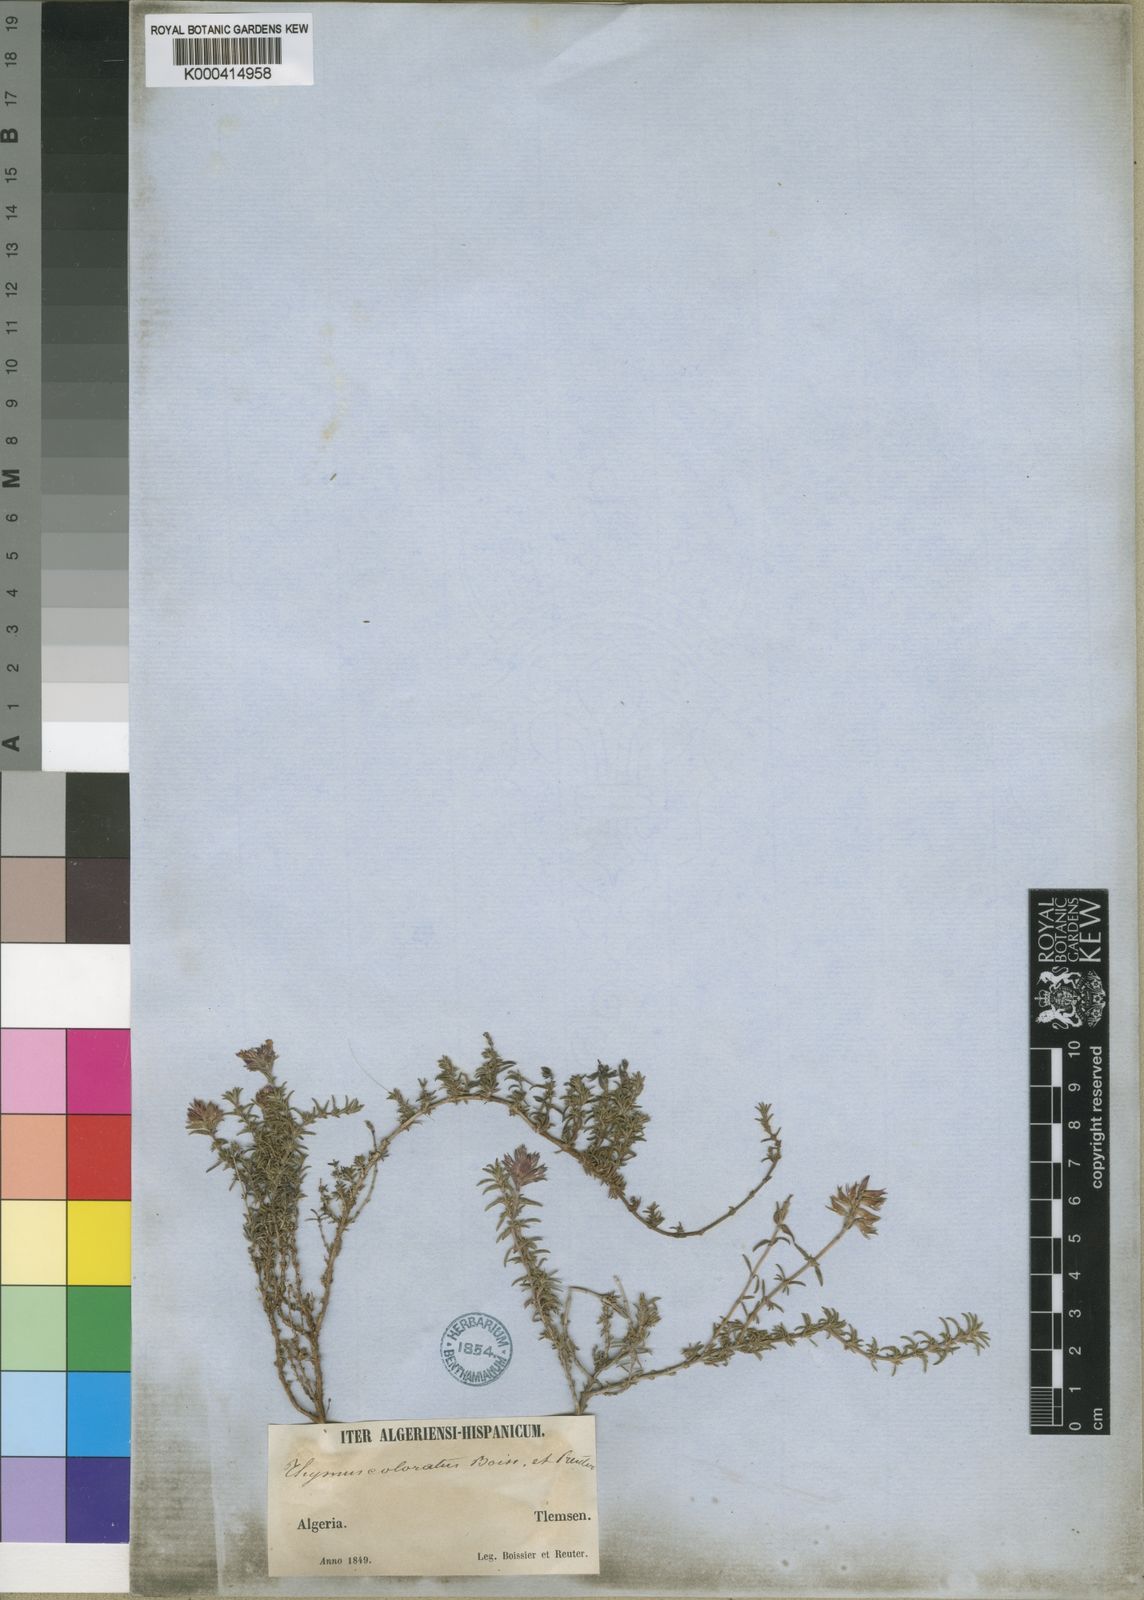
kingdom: Plantae
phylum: Tracheophyta
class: Magnoliopsida
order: Lamiales
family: Lamiaceae
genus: Thymus
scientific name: Thymus munbyanus
